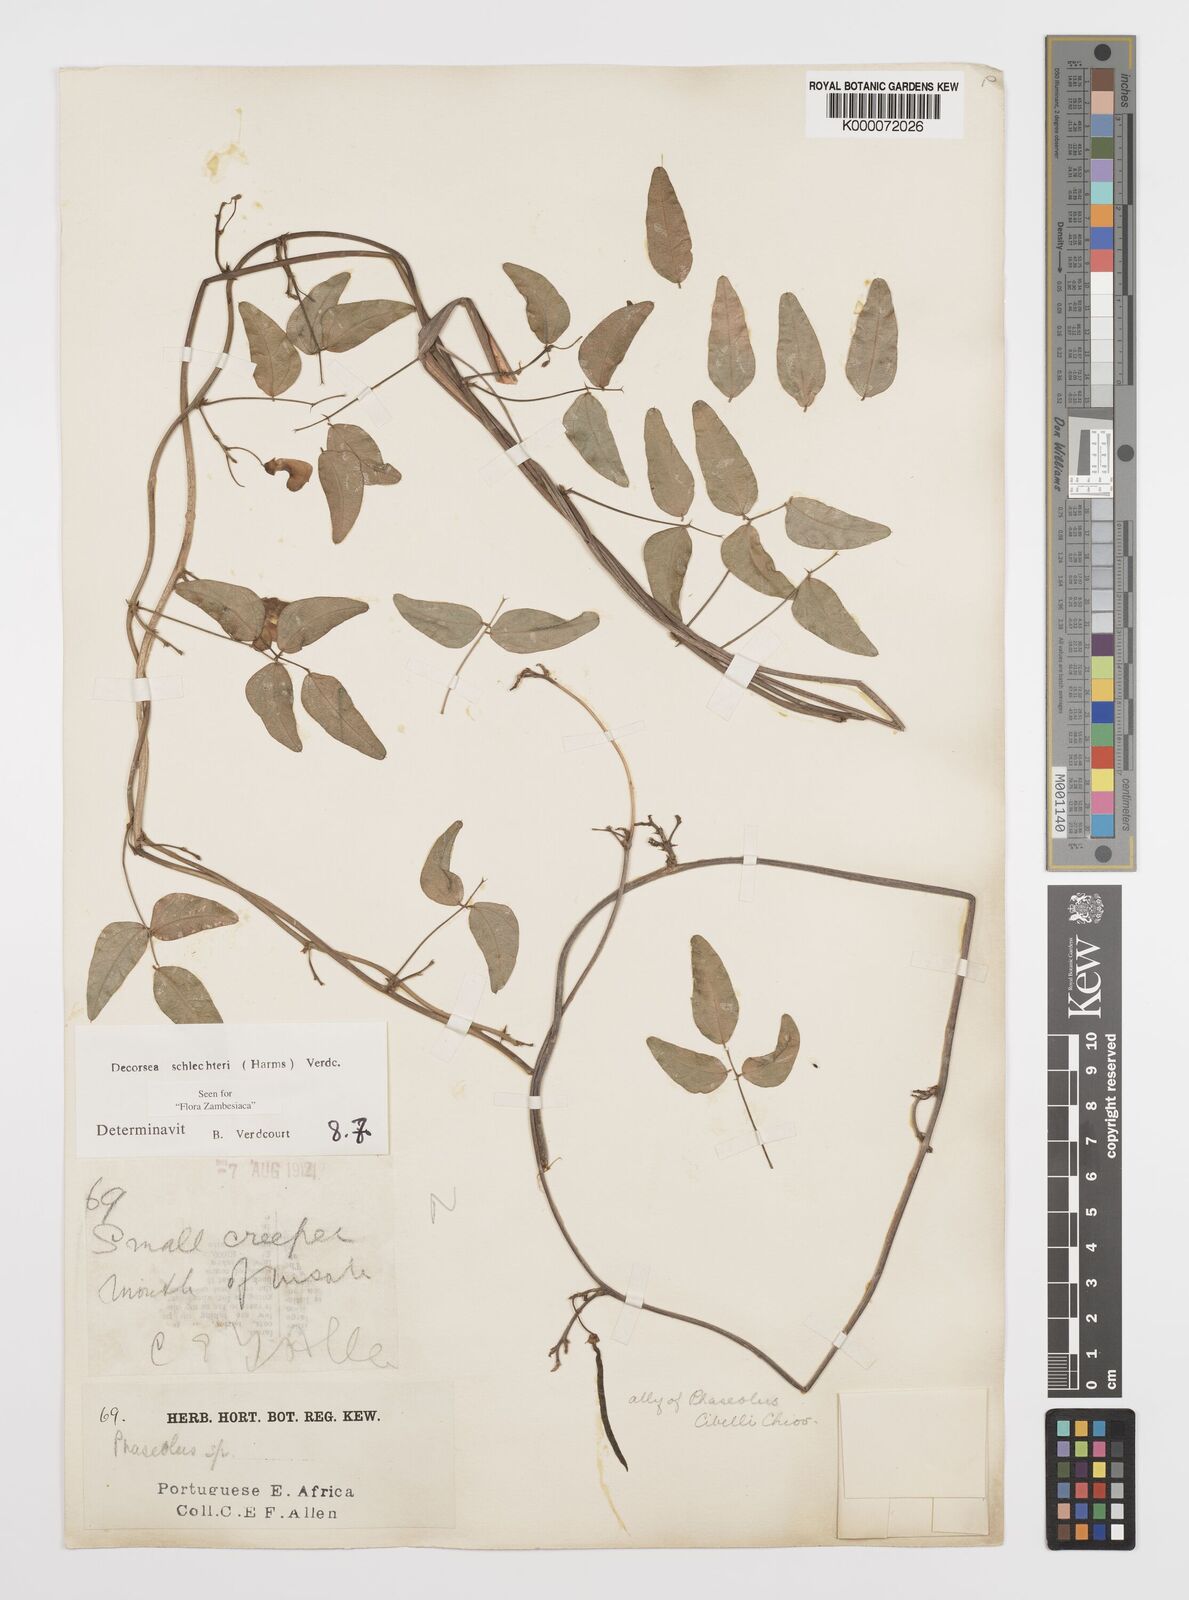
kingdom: Plantae
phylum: Tracheophyta
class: Magnoliopsida
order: Fabales
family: Fabaceae
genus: Decorsea
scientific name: Decorsea schlechteri
